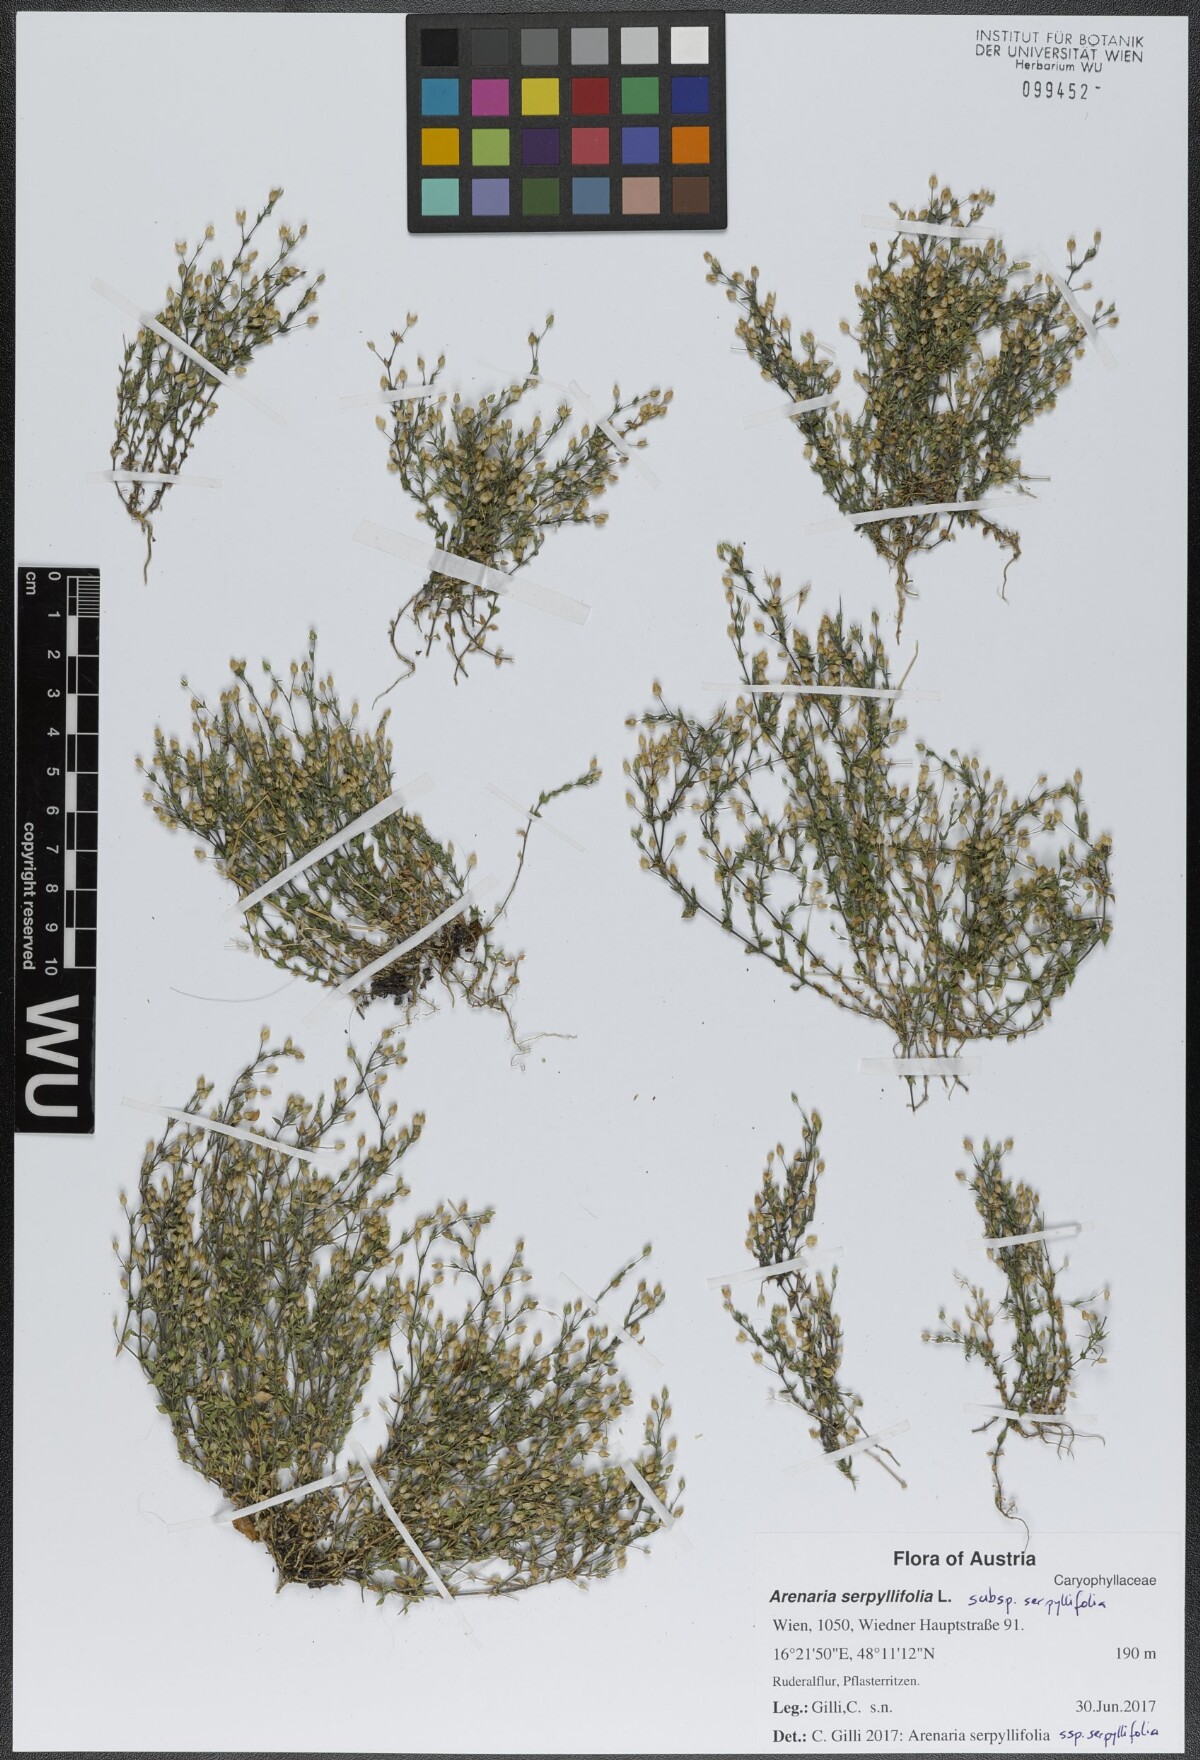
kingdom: Plantae
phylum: Tracheophyta
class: Magnoliopsida
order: Caryophyllales
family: Caryophyllaceae
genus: Arenaria
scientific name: Arenaria serpyllifolia
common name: Thyme-leaved sandwort
